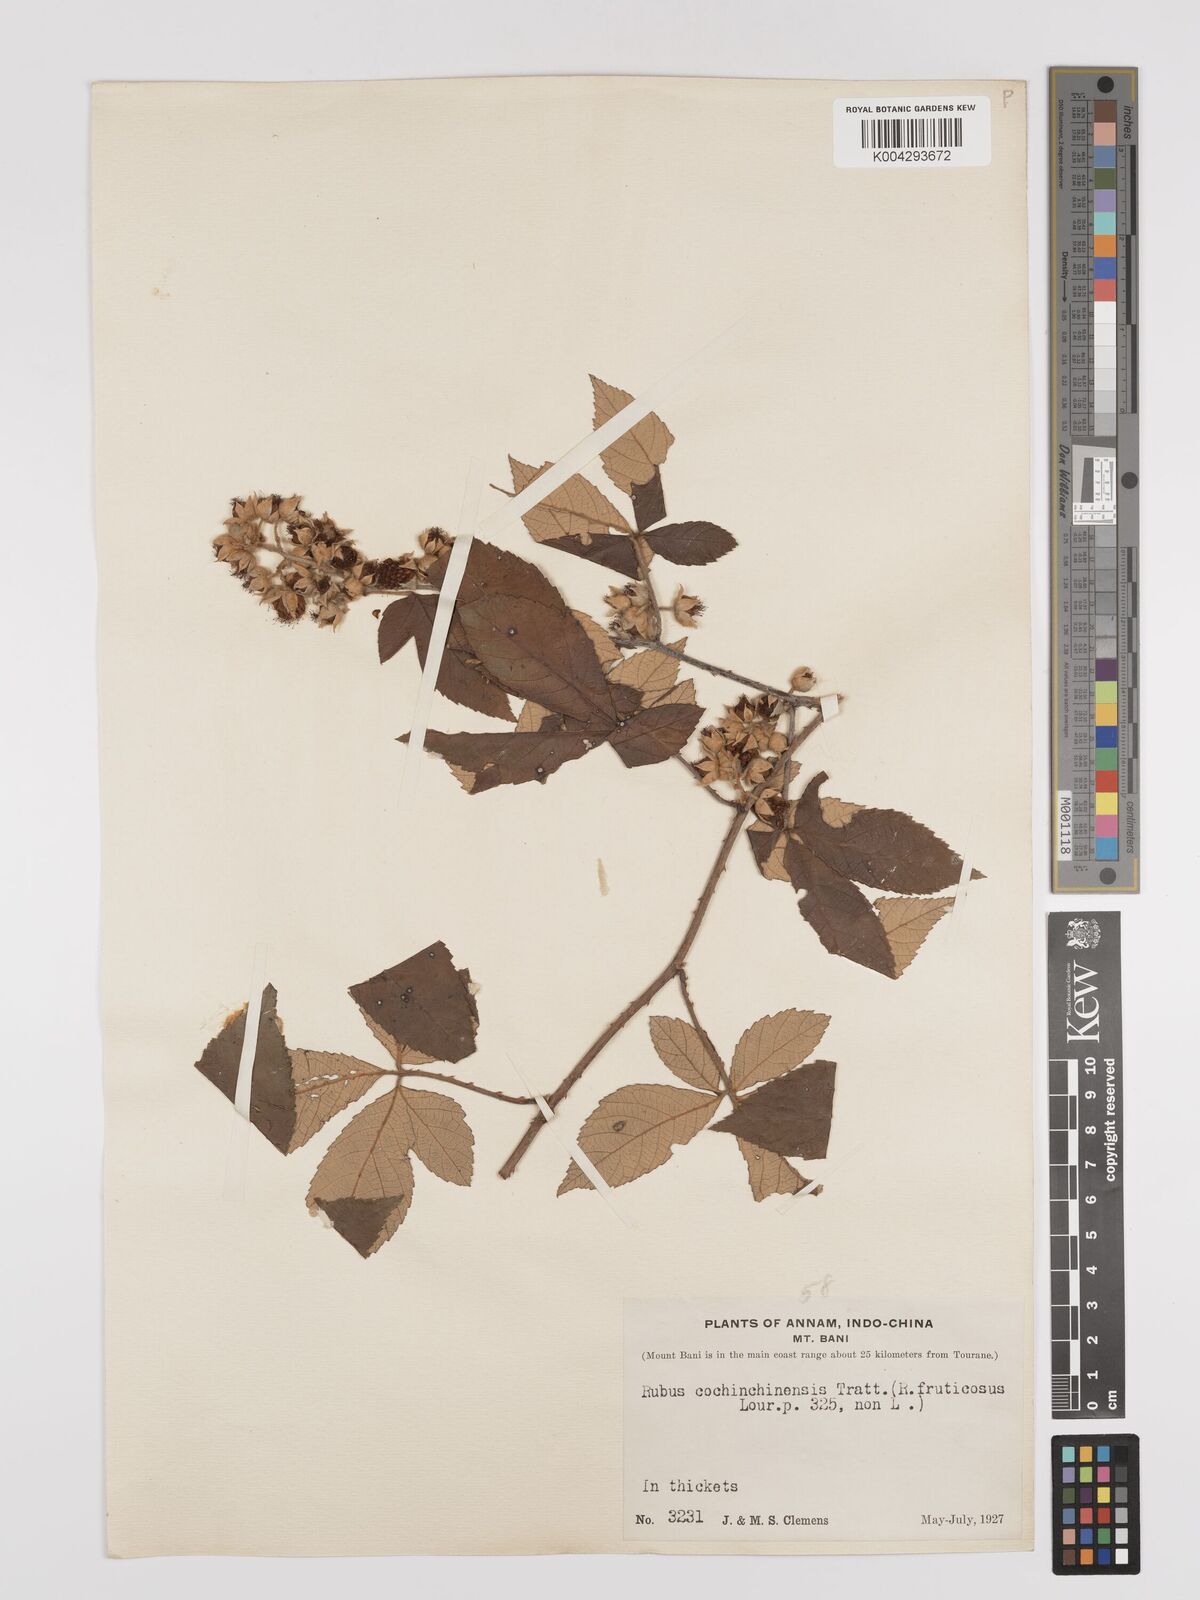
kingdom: Plantae
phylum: Tracheophyta
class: Magnoliopsida
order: Rosales
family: Rosaceae
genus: Rubus
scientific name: Rubus cochinchinensis
